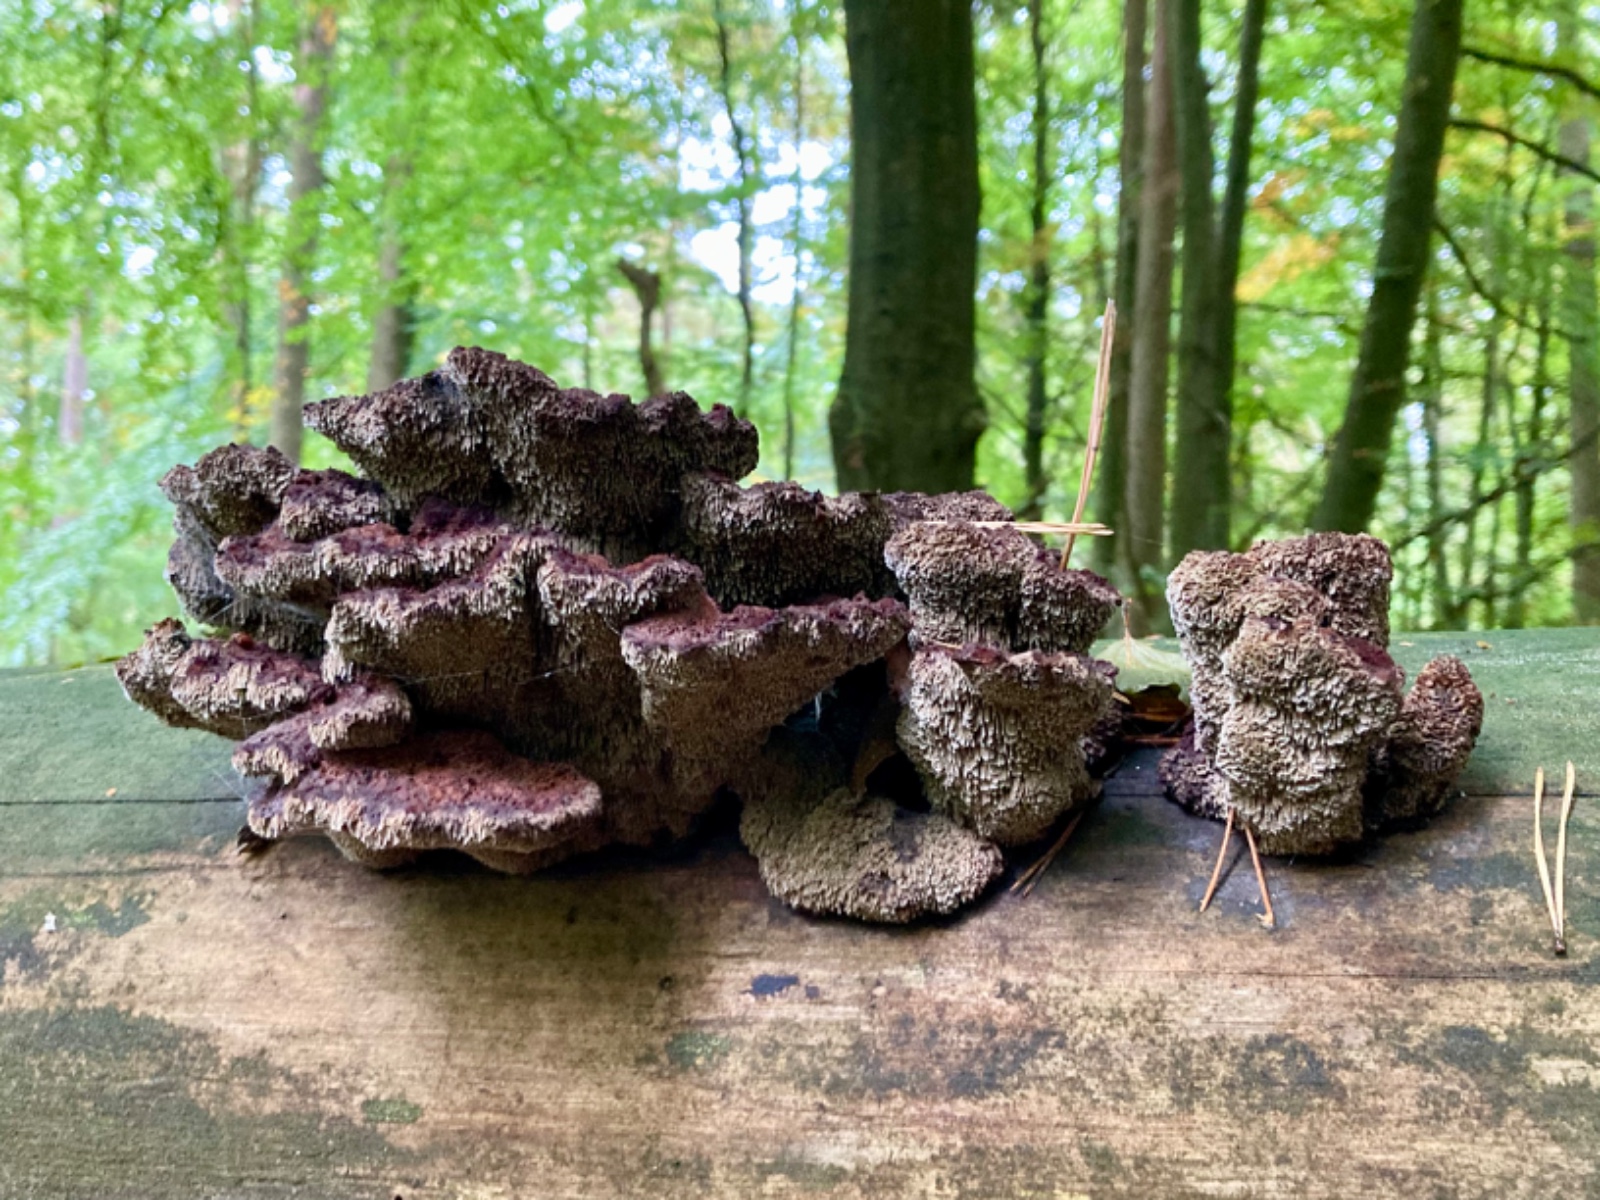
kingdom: Fungi
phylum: Basidiomycota
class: Agaricomycetes
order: Polyporales
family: Laetiporaceae
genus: Phaeolus
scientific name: Phaeolus schweinitzii
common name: brunporesvamp
